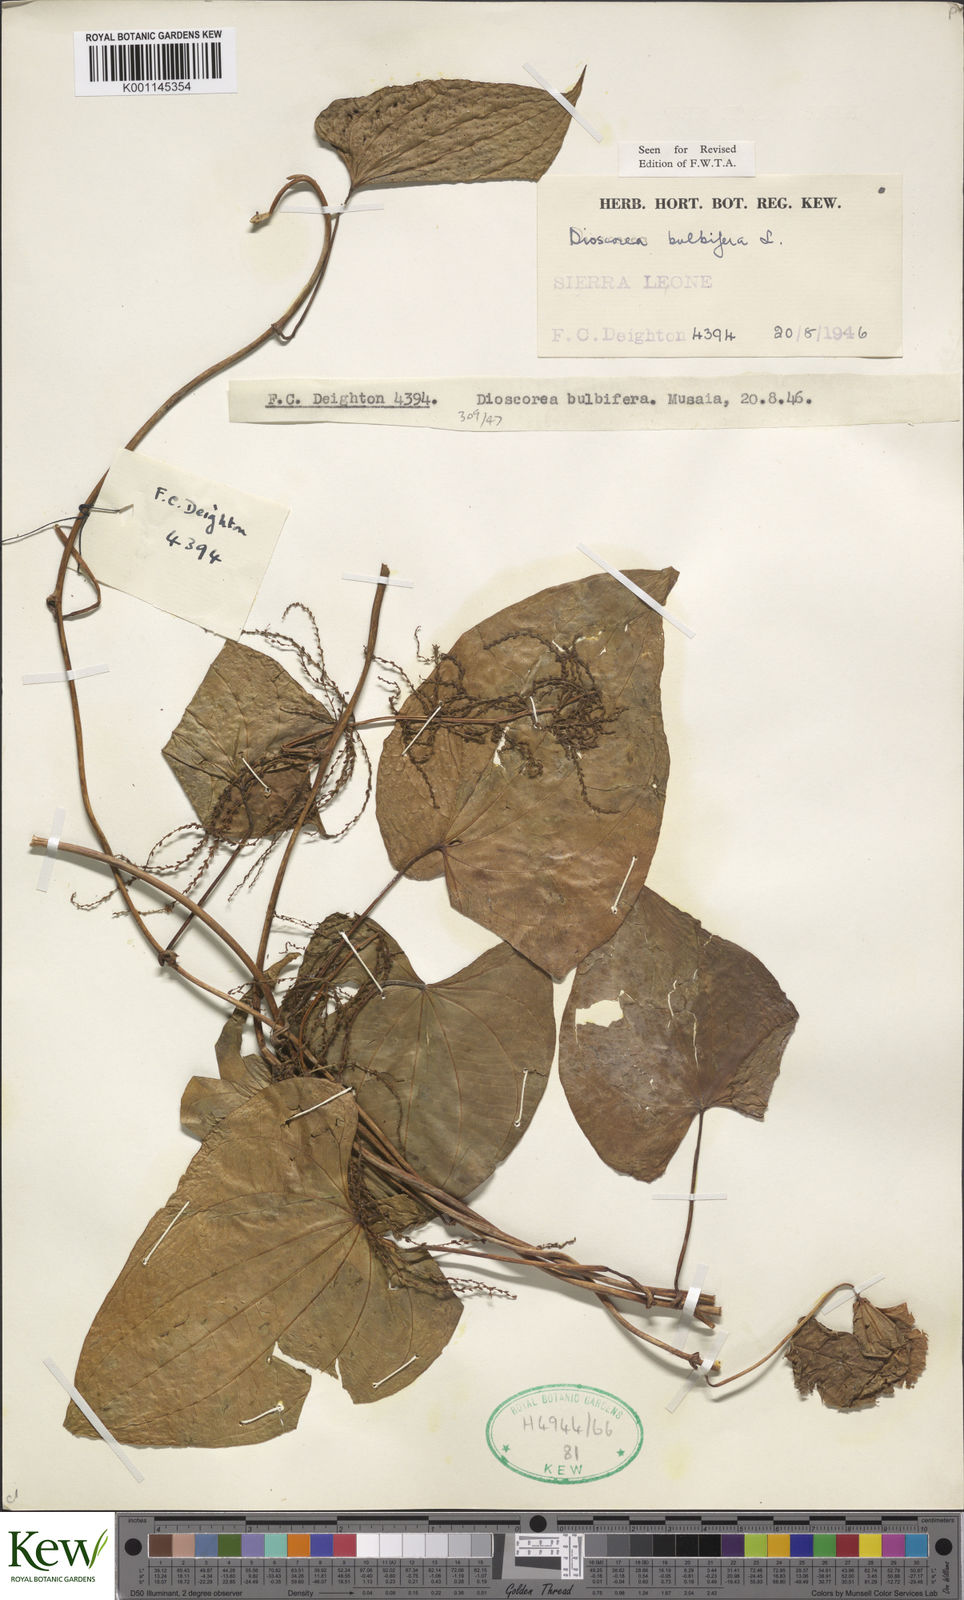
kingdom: Plantae
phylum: Tracheophyta
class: Liliopsida
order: Dioscoreales
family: Dioscoreaceae
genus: Dioscorea
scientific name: Dioscorea bulbifera
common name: Air yam
